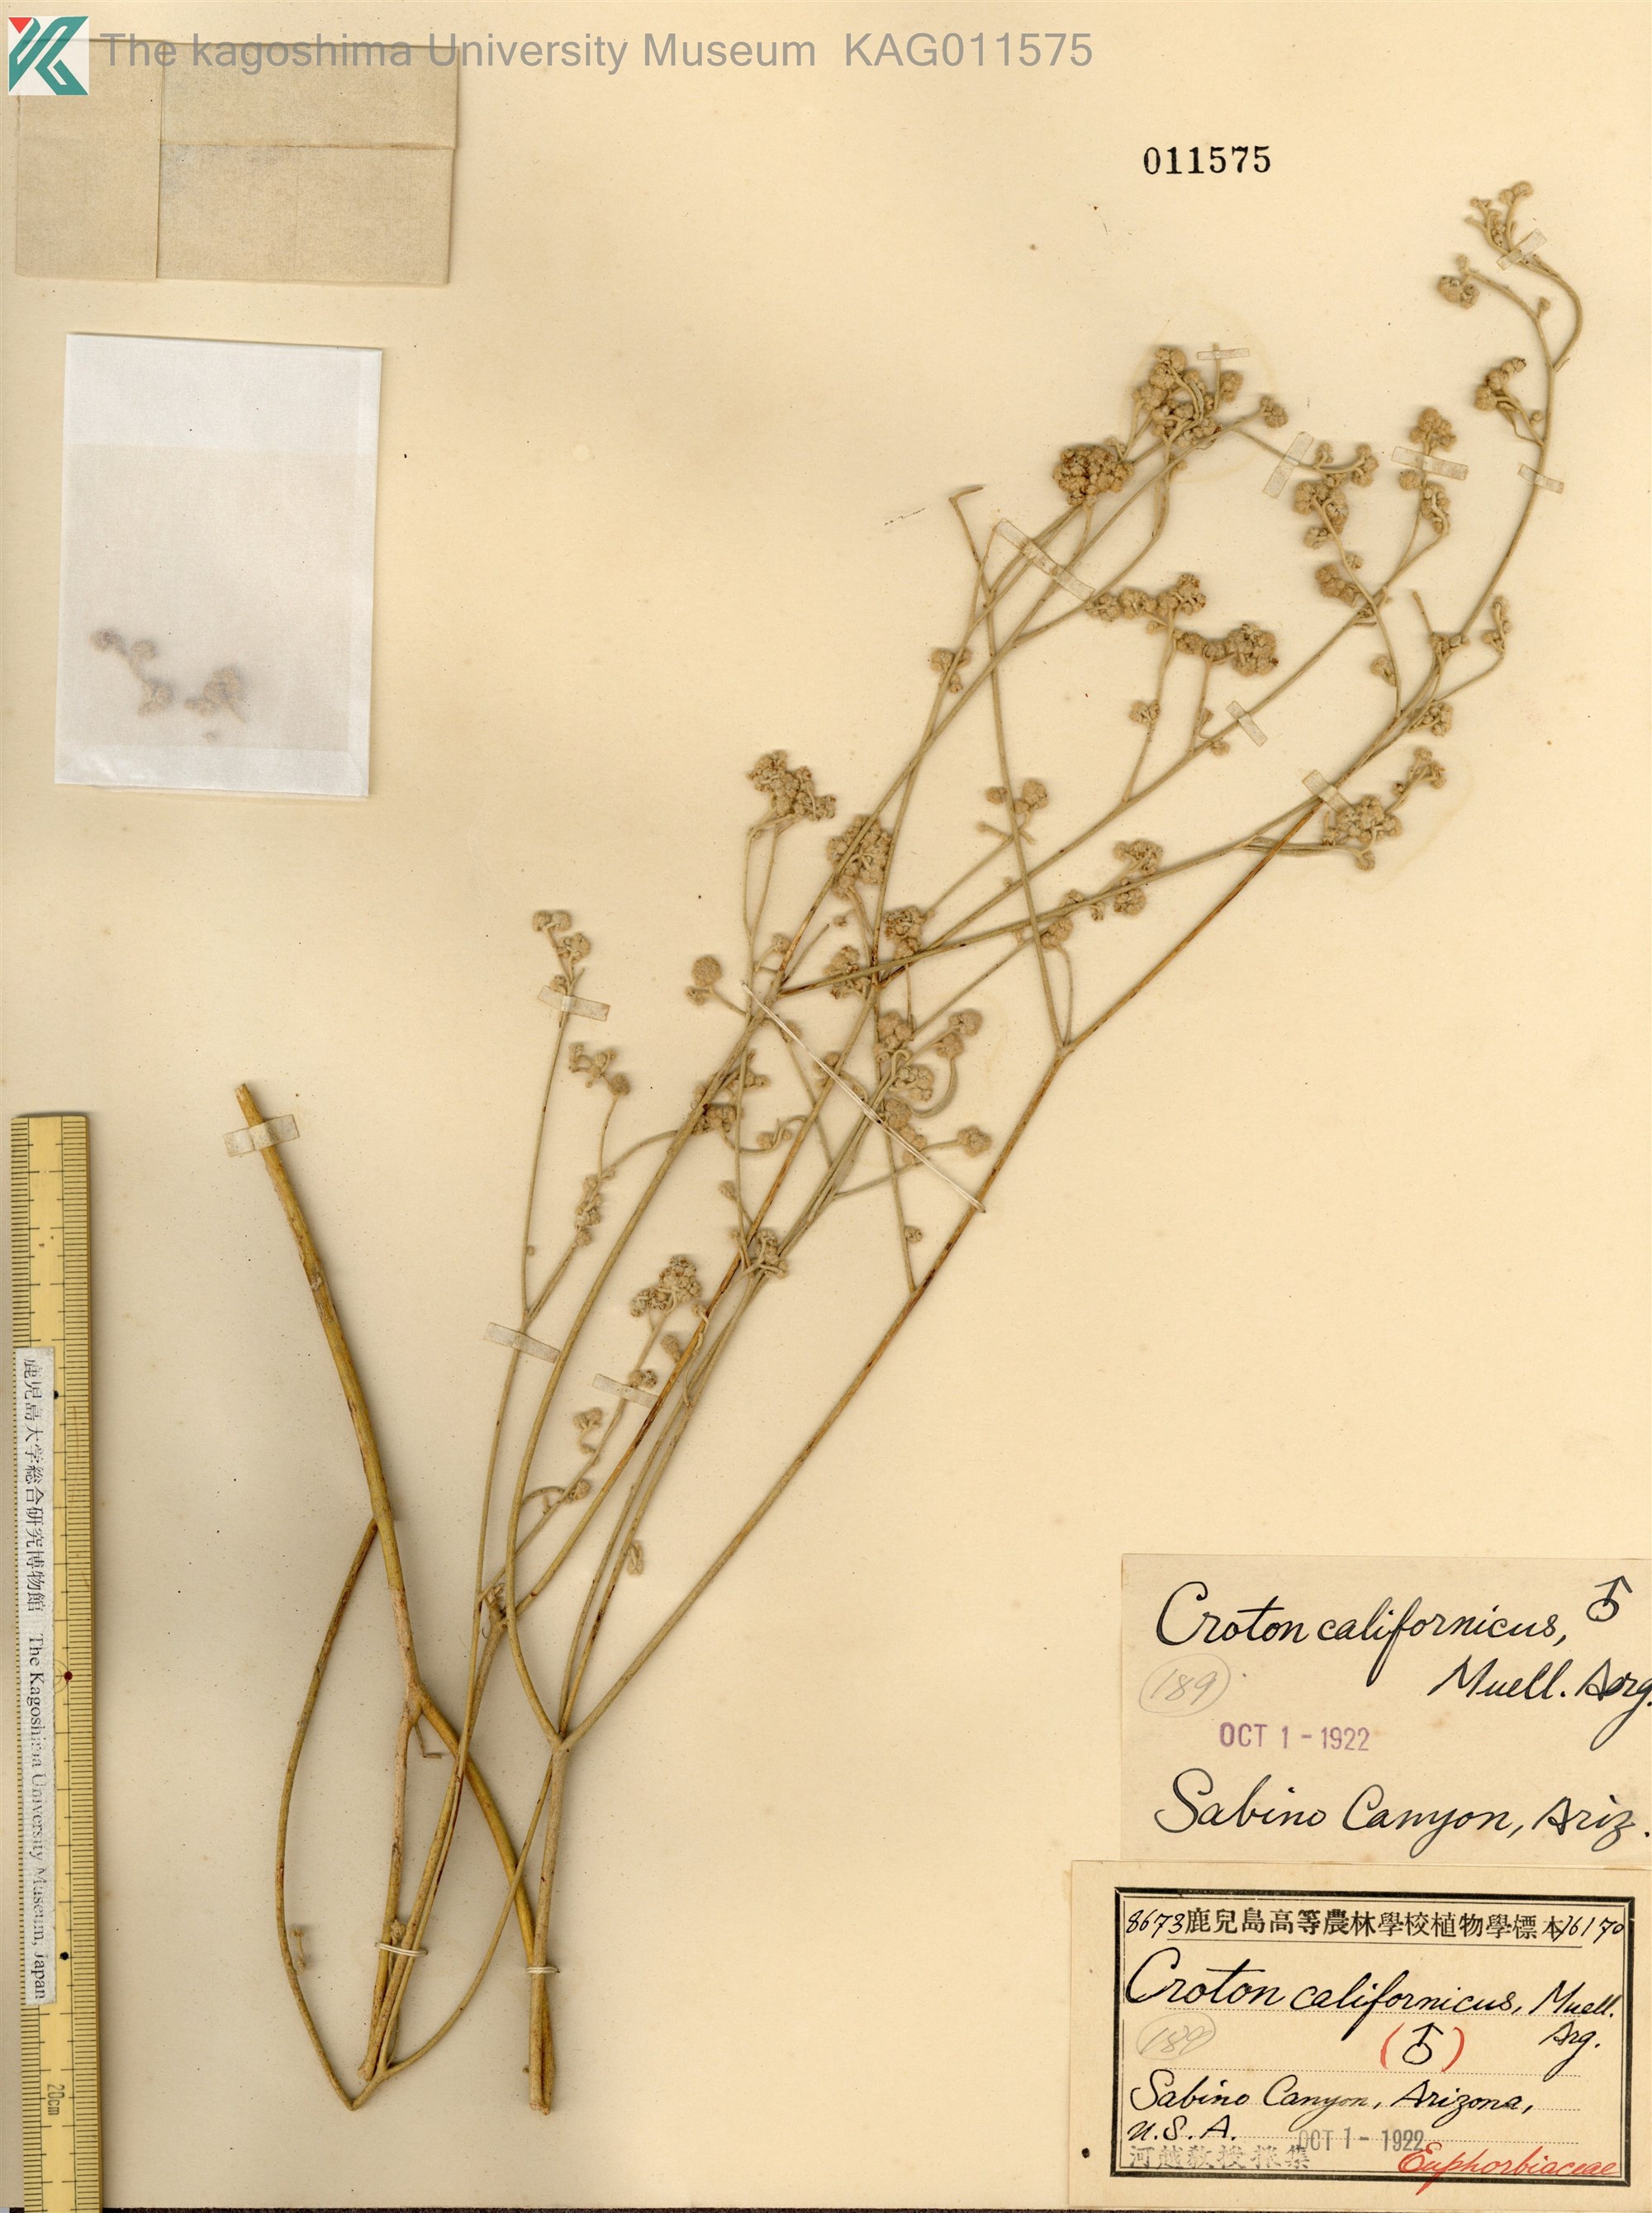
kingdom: Plantae
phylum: Tracheophyta
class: Magnoliopsida
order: Malpighiales
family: Euphorbiaceae
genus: Croton
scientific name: Croton californicus
